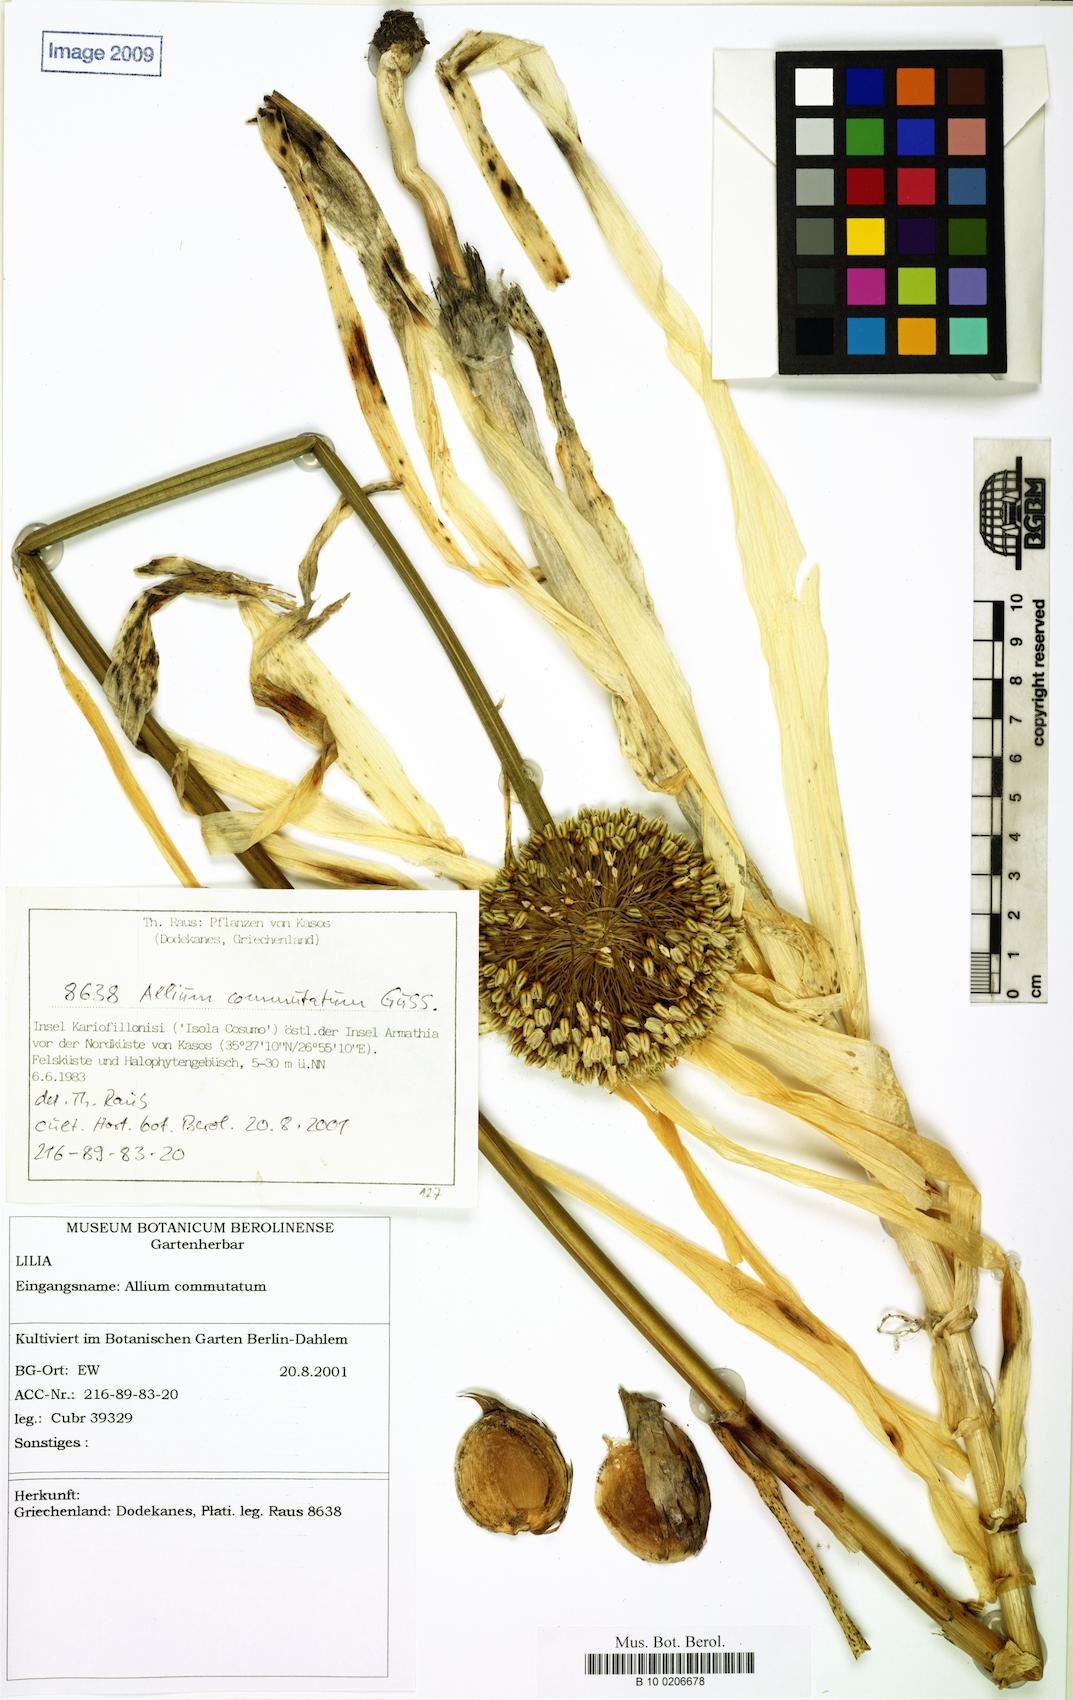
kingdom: Plantae
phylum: Tracheophyta
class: Liliopsida
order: Asparagales
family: Amaryllidaceae
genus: Allium
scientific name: Allium commutatum
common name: Sea garlic
